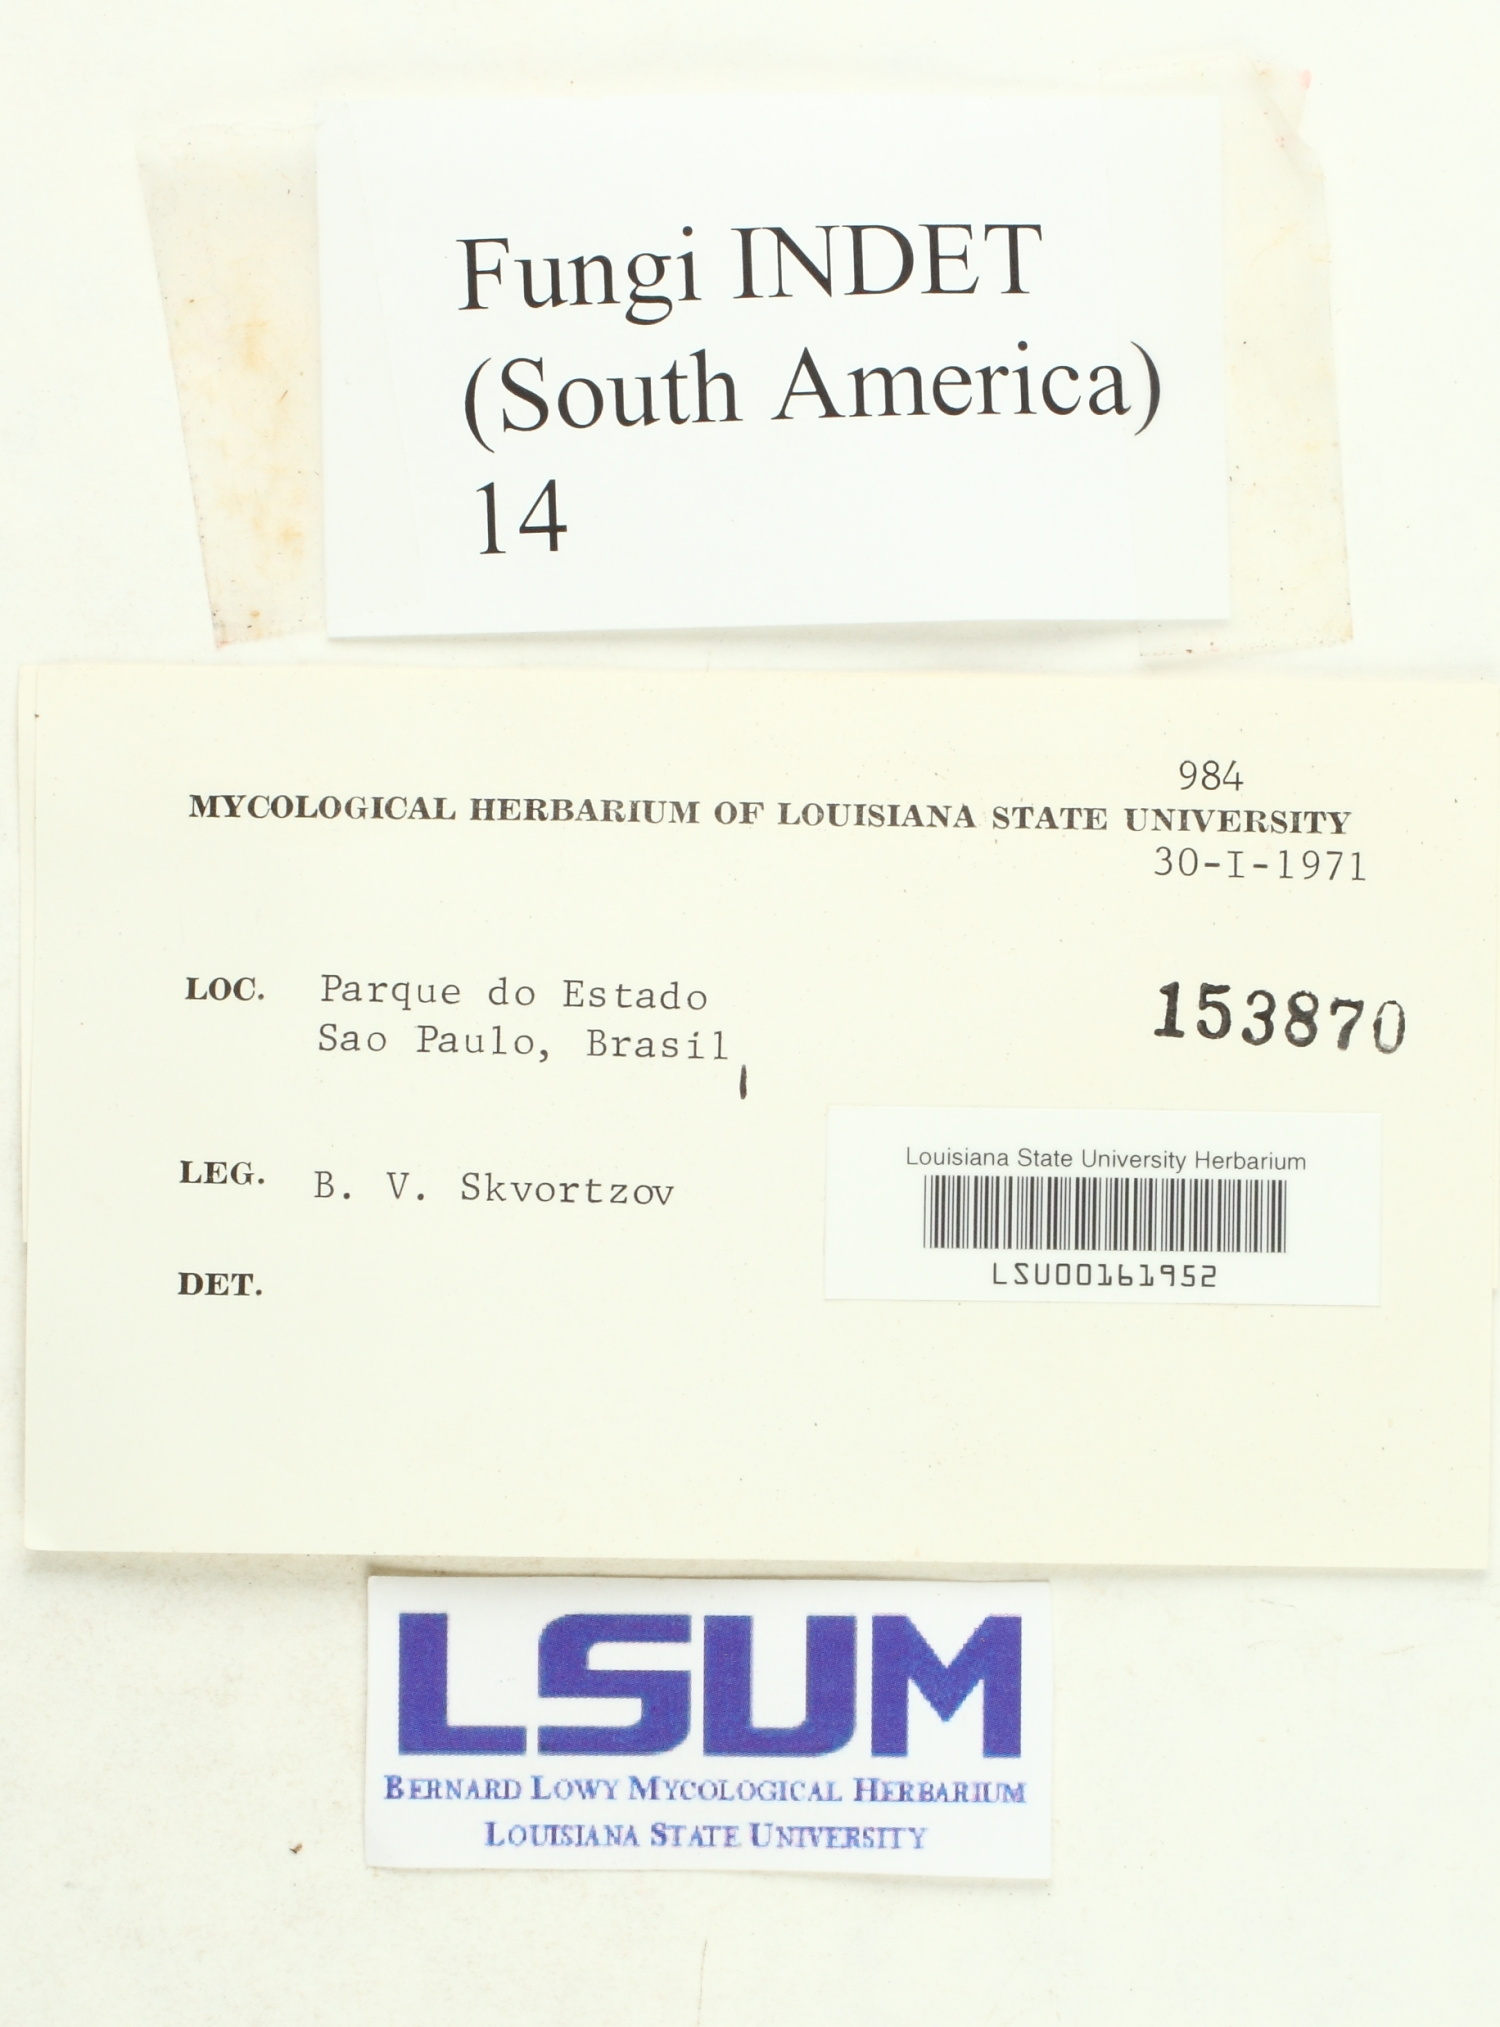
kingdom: Fungi
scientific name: Fungi
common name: Fungi
